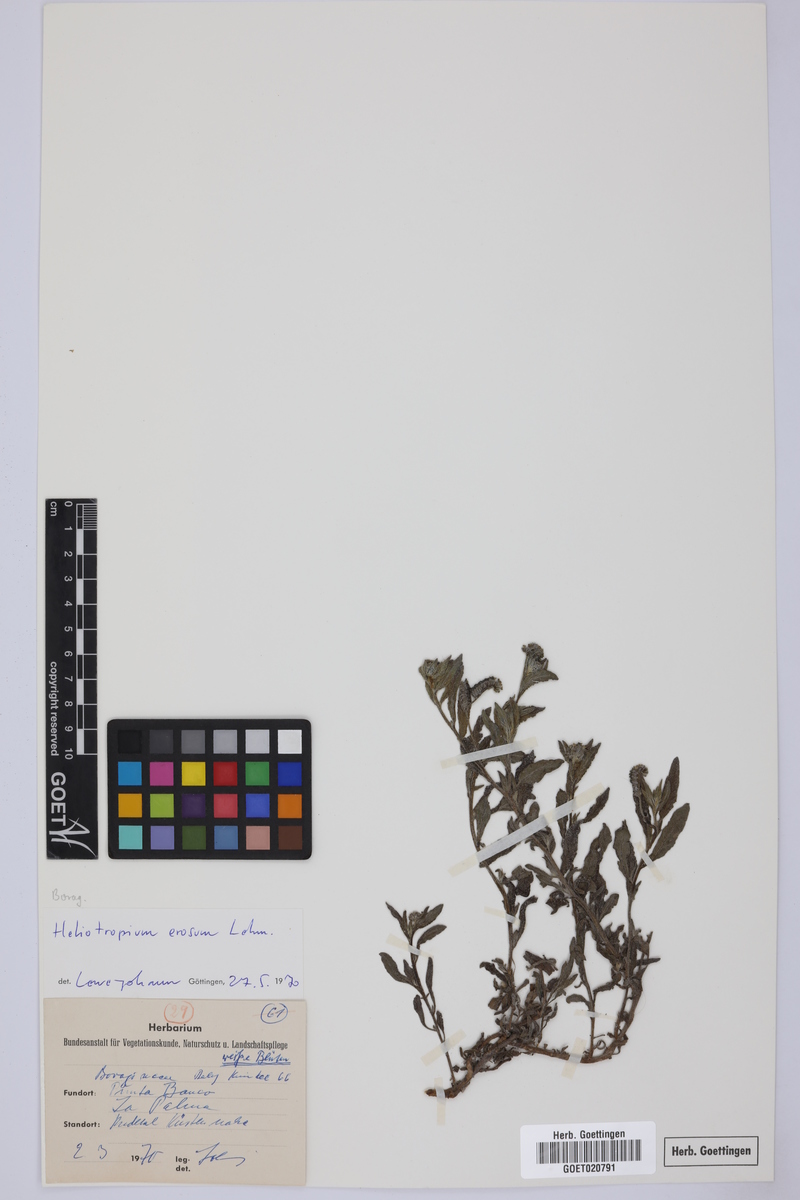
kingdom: Plantae
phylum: Tracheophyta
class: Magnoliopsida
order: Boraginales
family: Heliotropiaceae
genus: Heliotropium
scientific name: Heliotropium crispum
